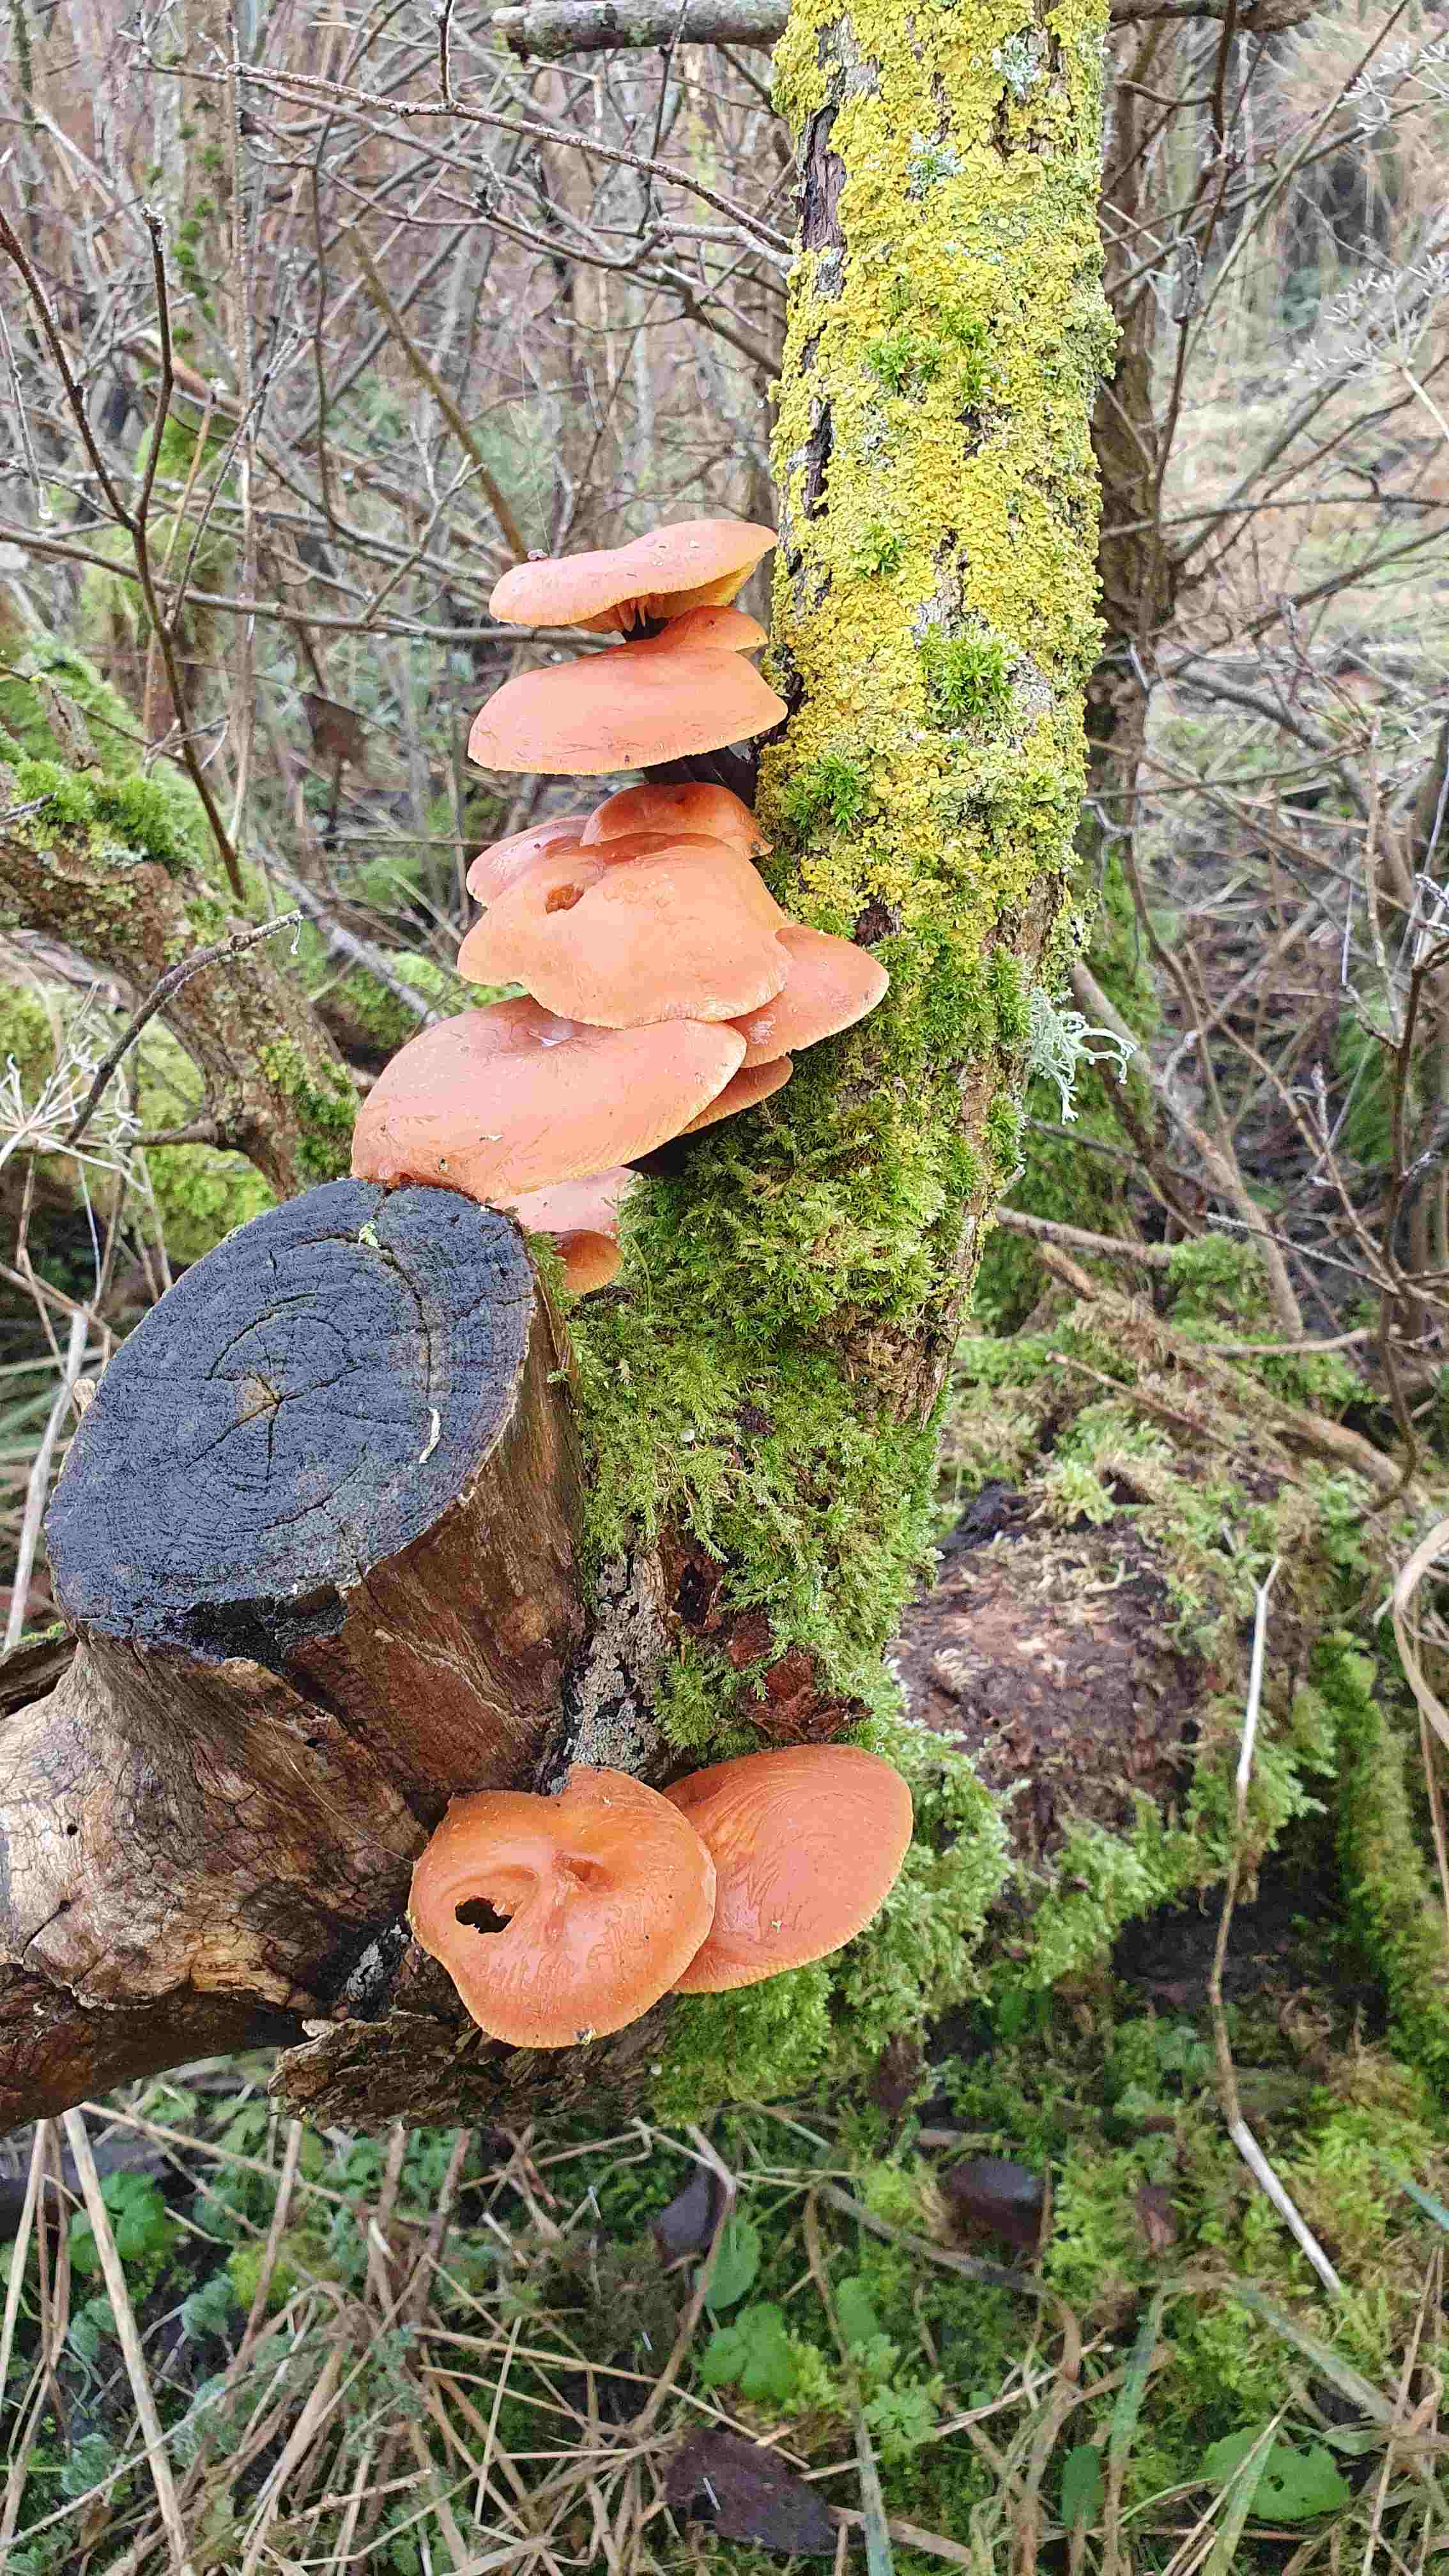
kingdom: Fungi
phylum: Basidiomycota
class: Agaricomycetes
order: Agaricales
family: Physalacriaceae
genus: Flammulina
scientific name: Flammulina
